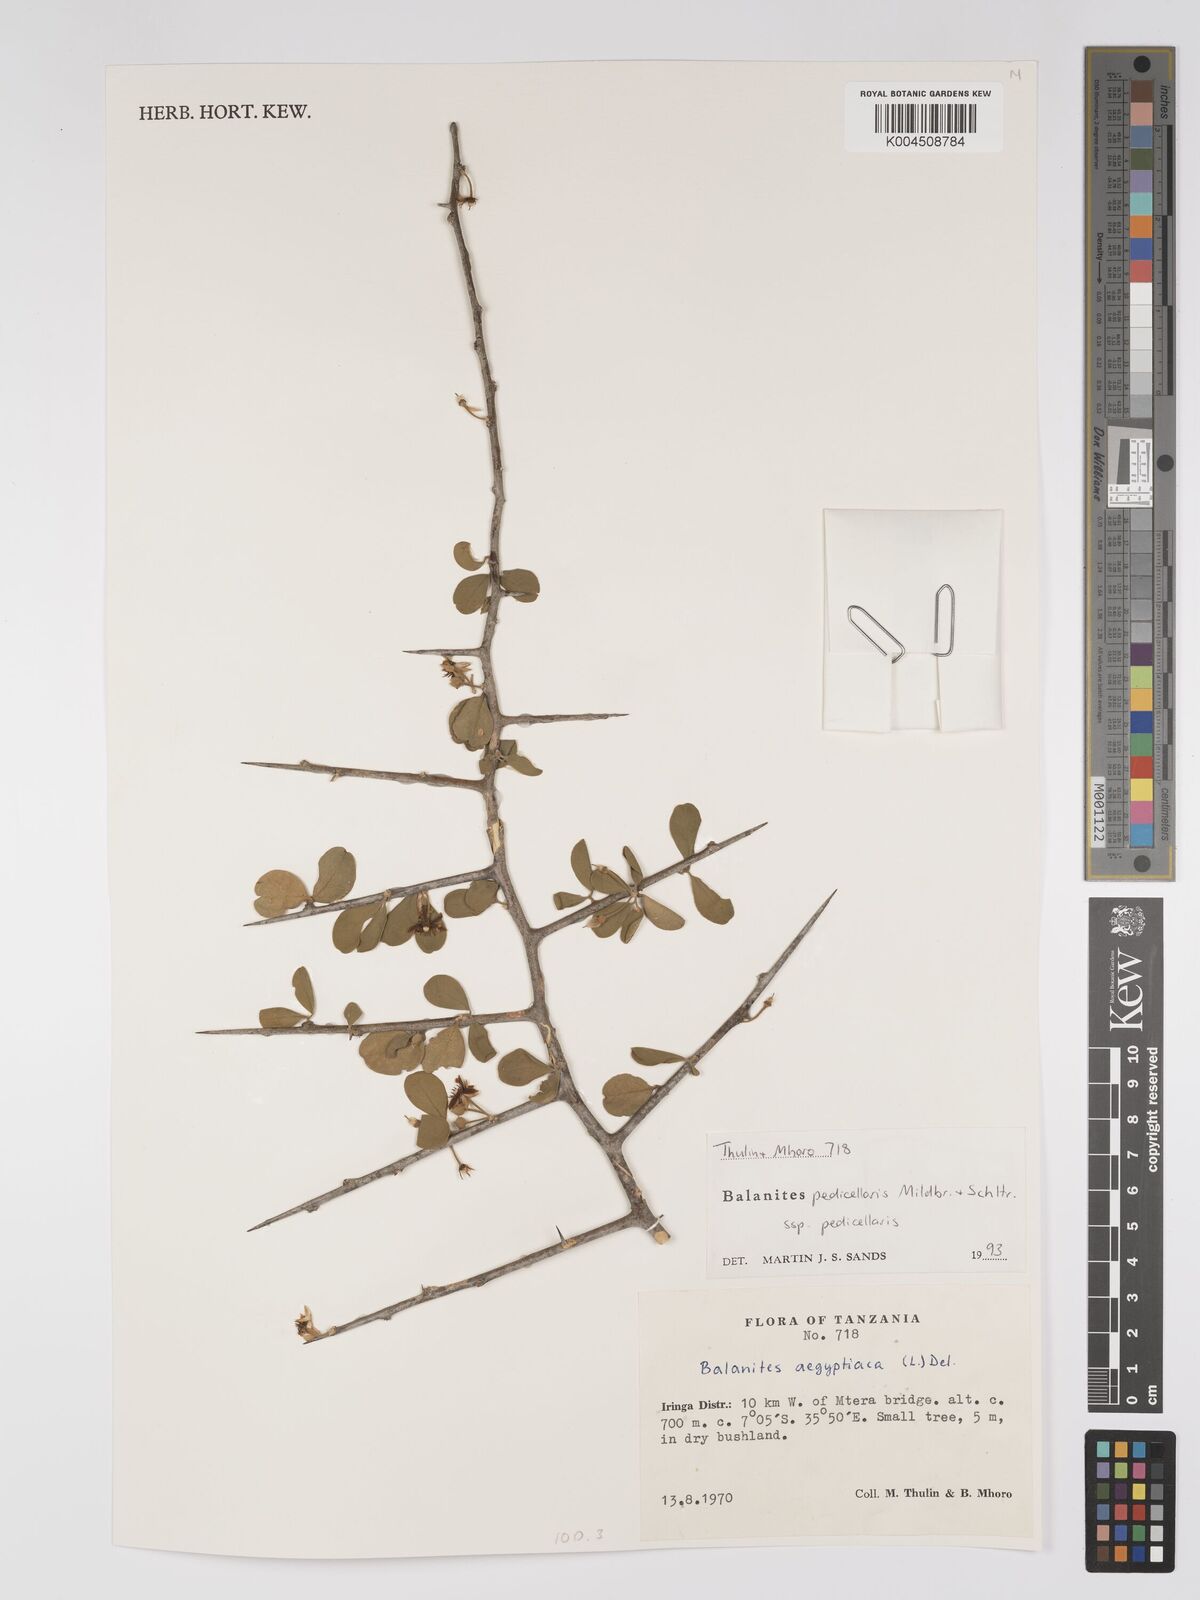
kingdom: Plantae
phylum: Tracheophyta
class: Magnoliopsida
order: Zygophyllales
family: Zygophyllaceae
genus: Balanites
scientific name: Balanites pedicellaris
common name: Small green-thorn
